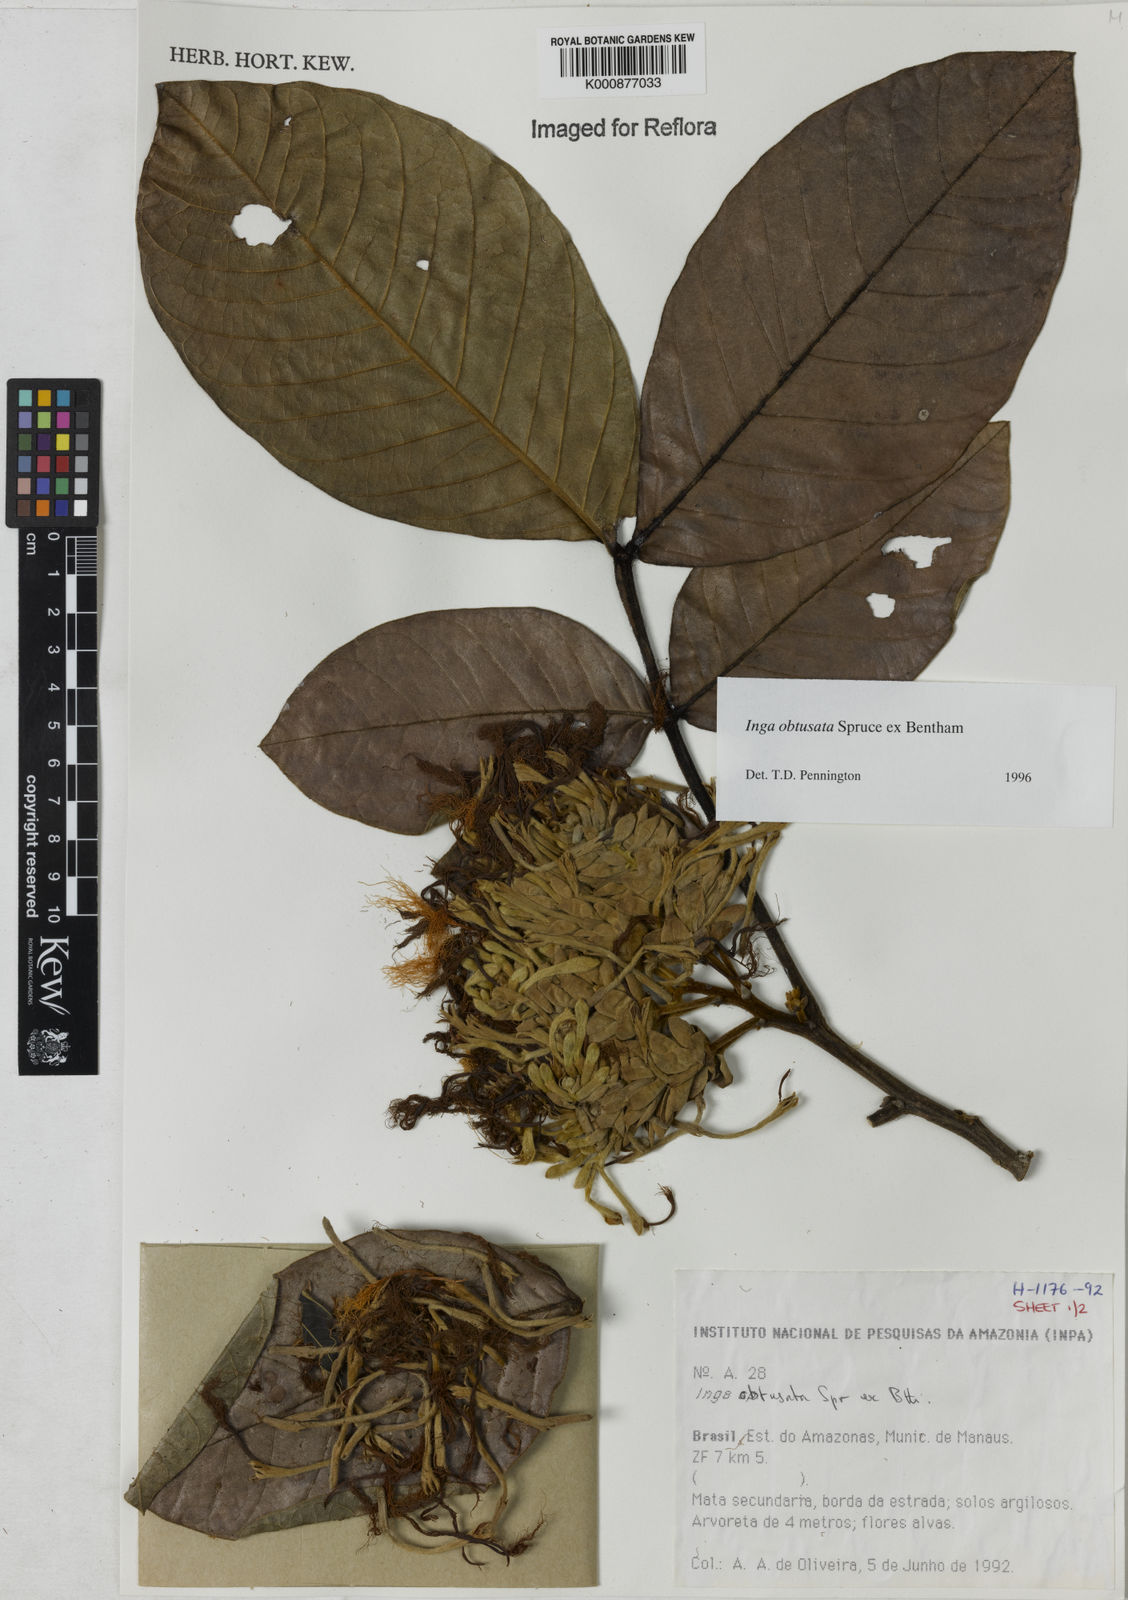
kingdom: Plantae
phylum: Tracheophyta
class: Magnoliopsida
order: Fabales
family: Fabaceae
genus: Inga
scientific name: Inga obtusata
